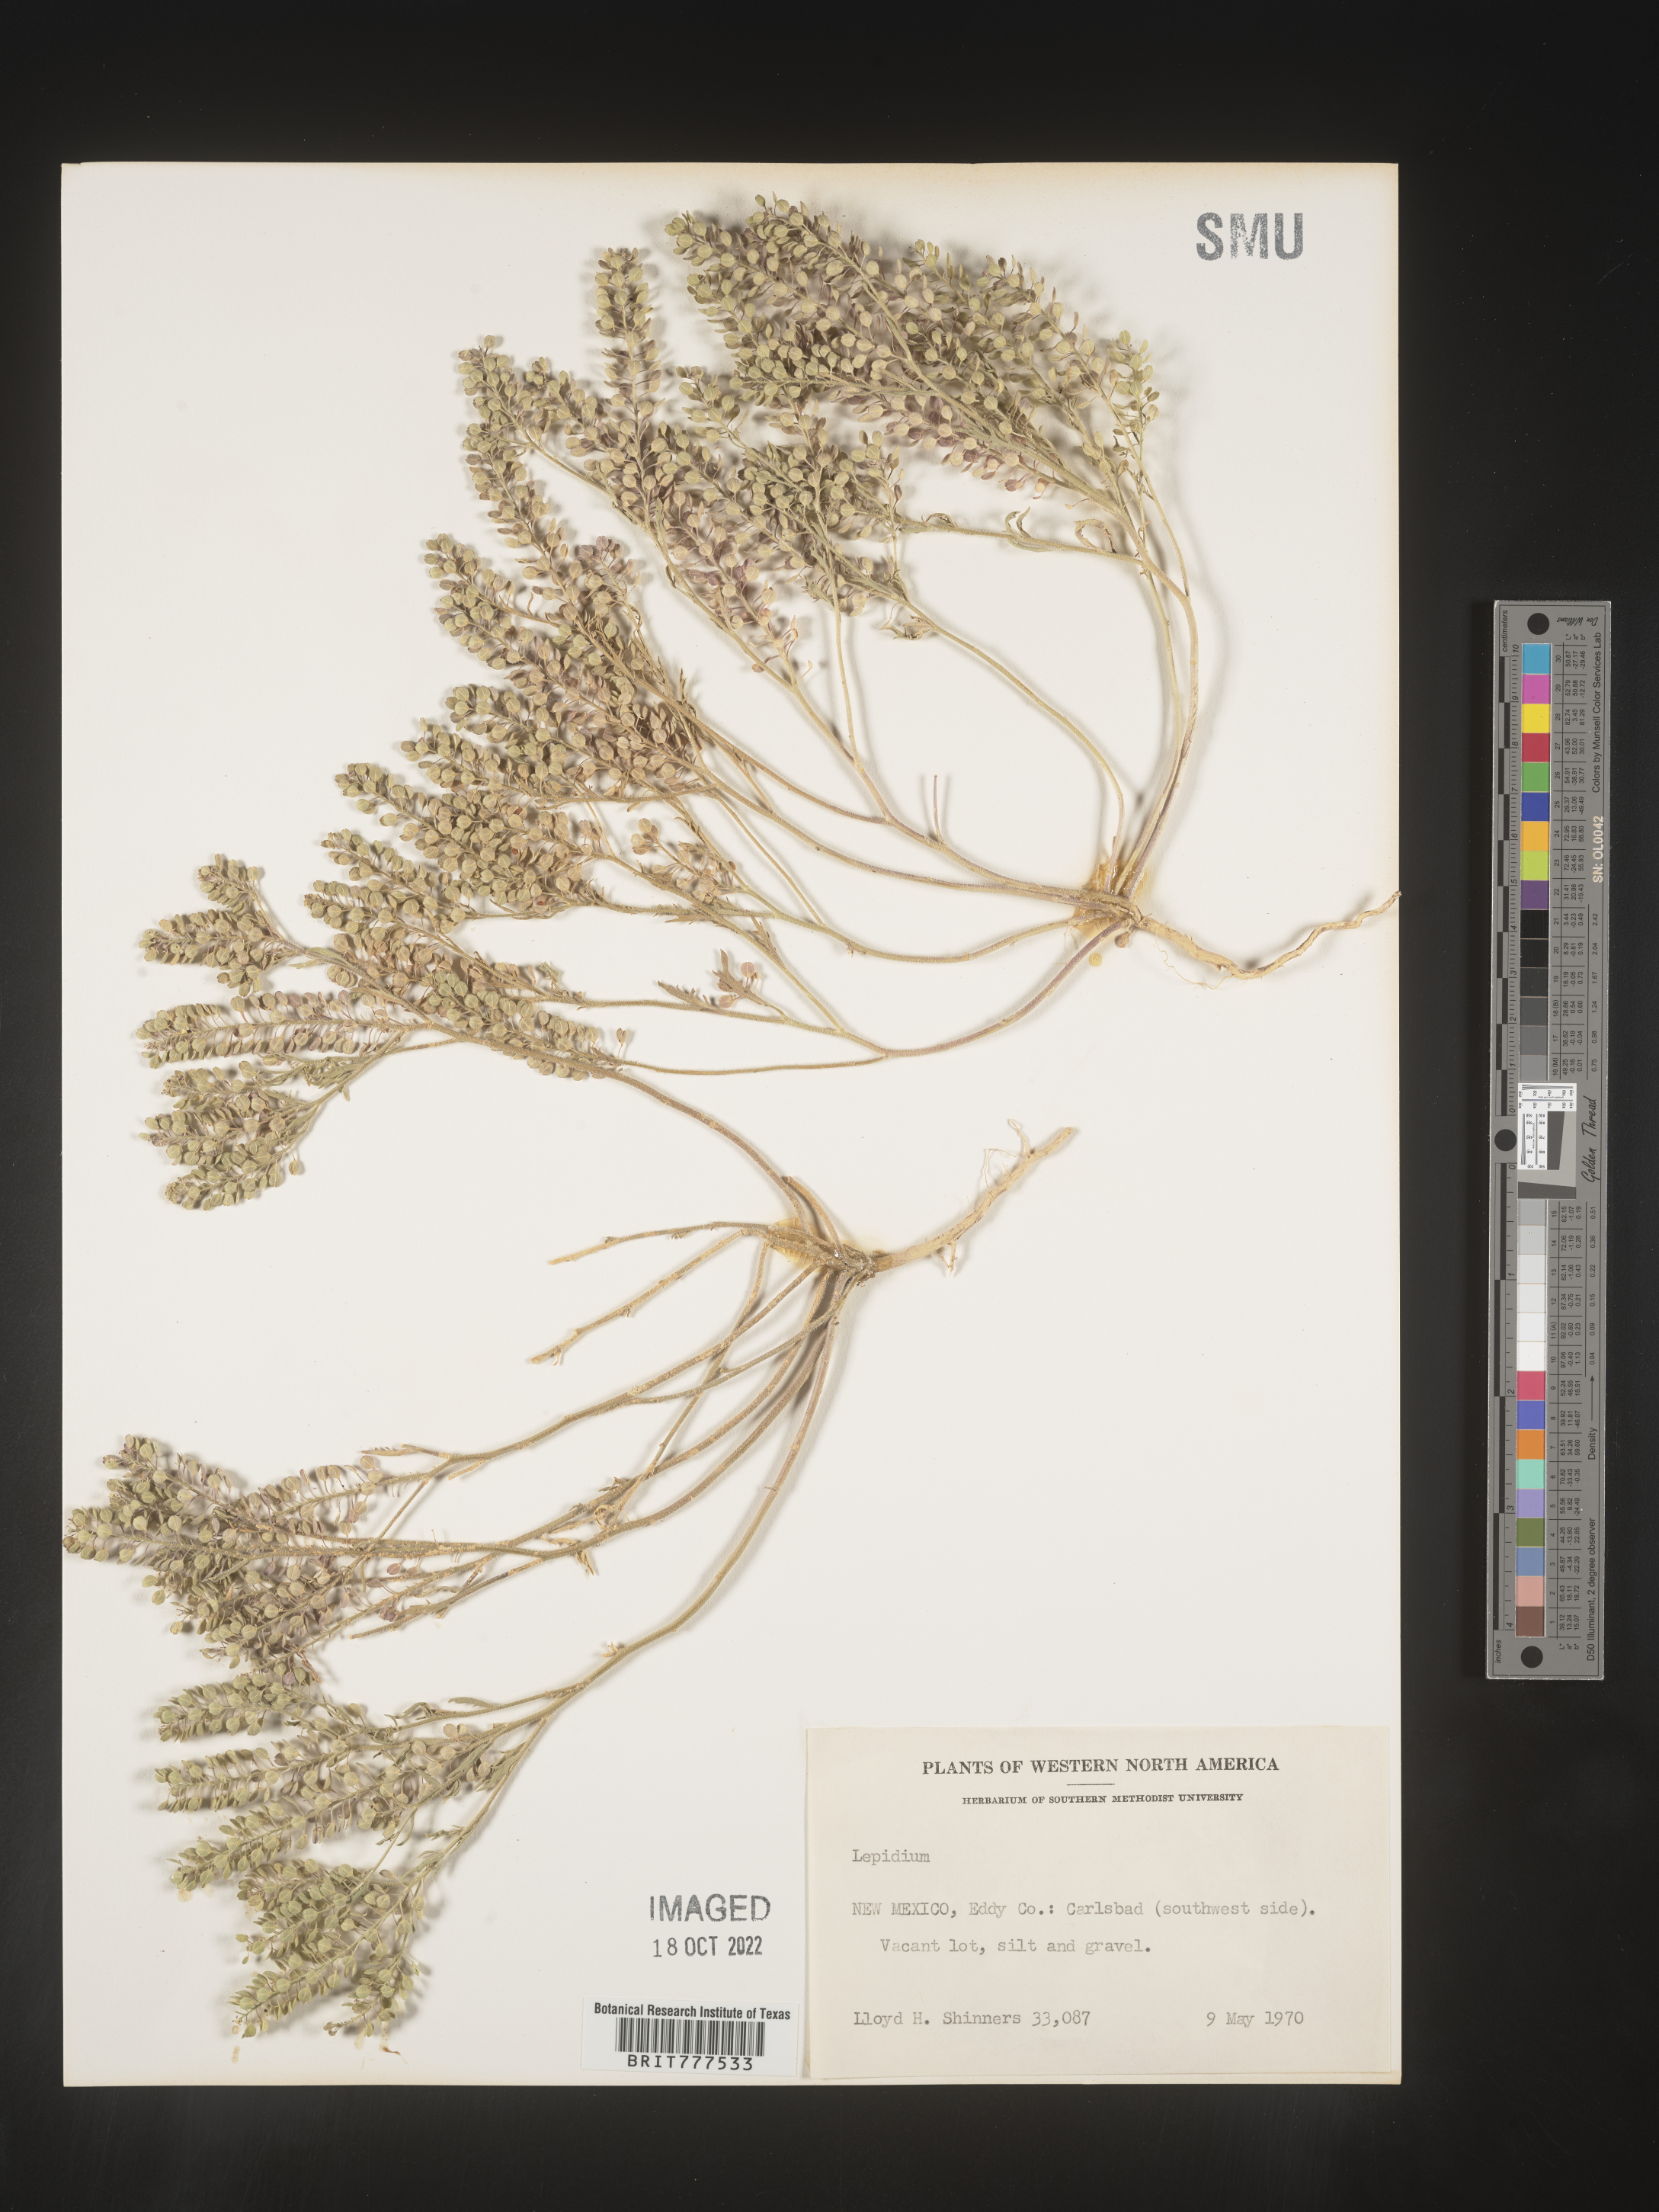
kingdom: Plantae
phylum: Tracheophyta
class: Magnoliopsida
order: Brassicales
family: Brassicaceae
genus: Lepidium
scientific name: Lepidium
